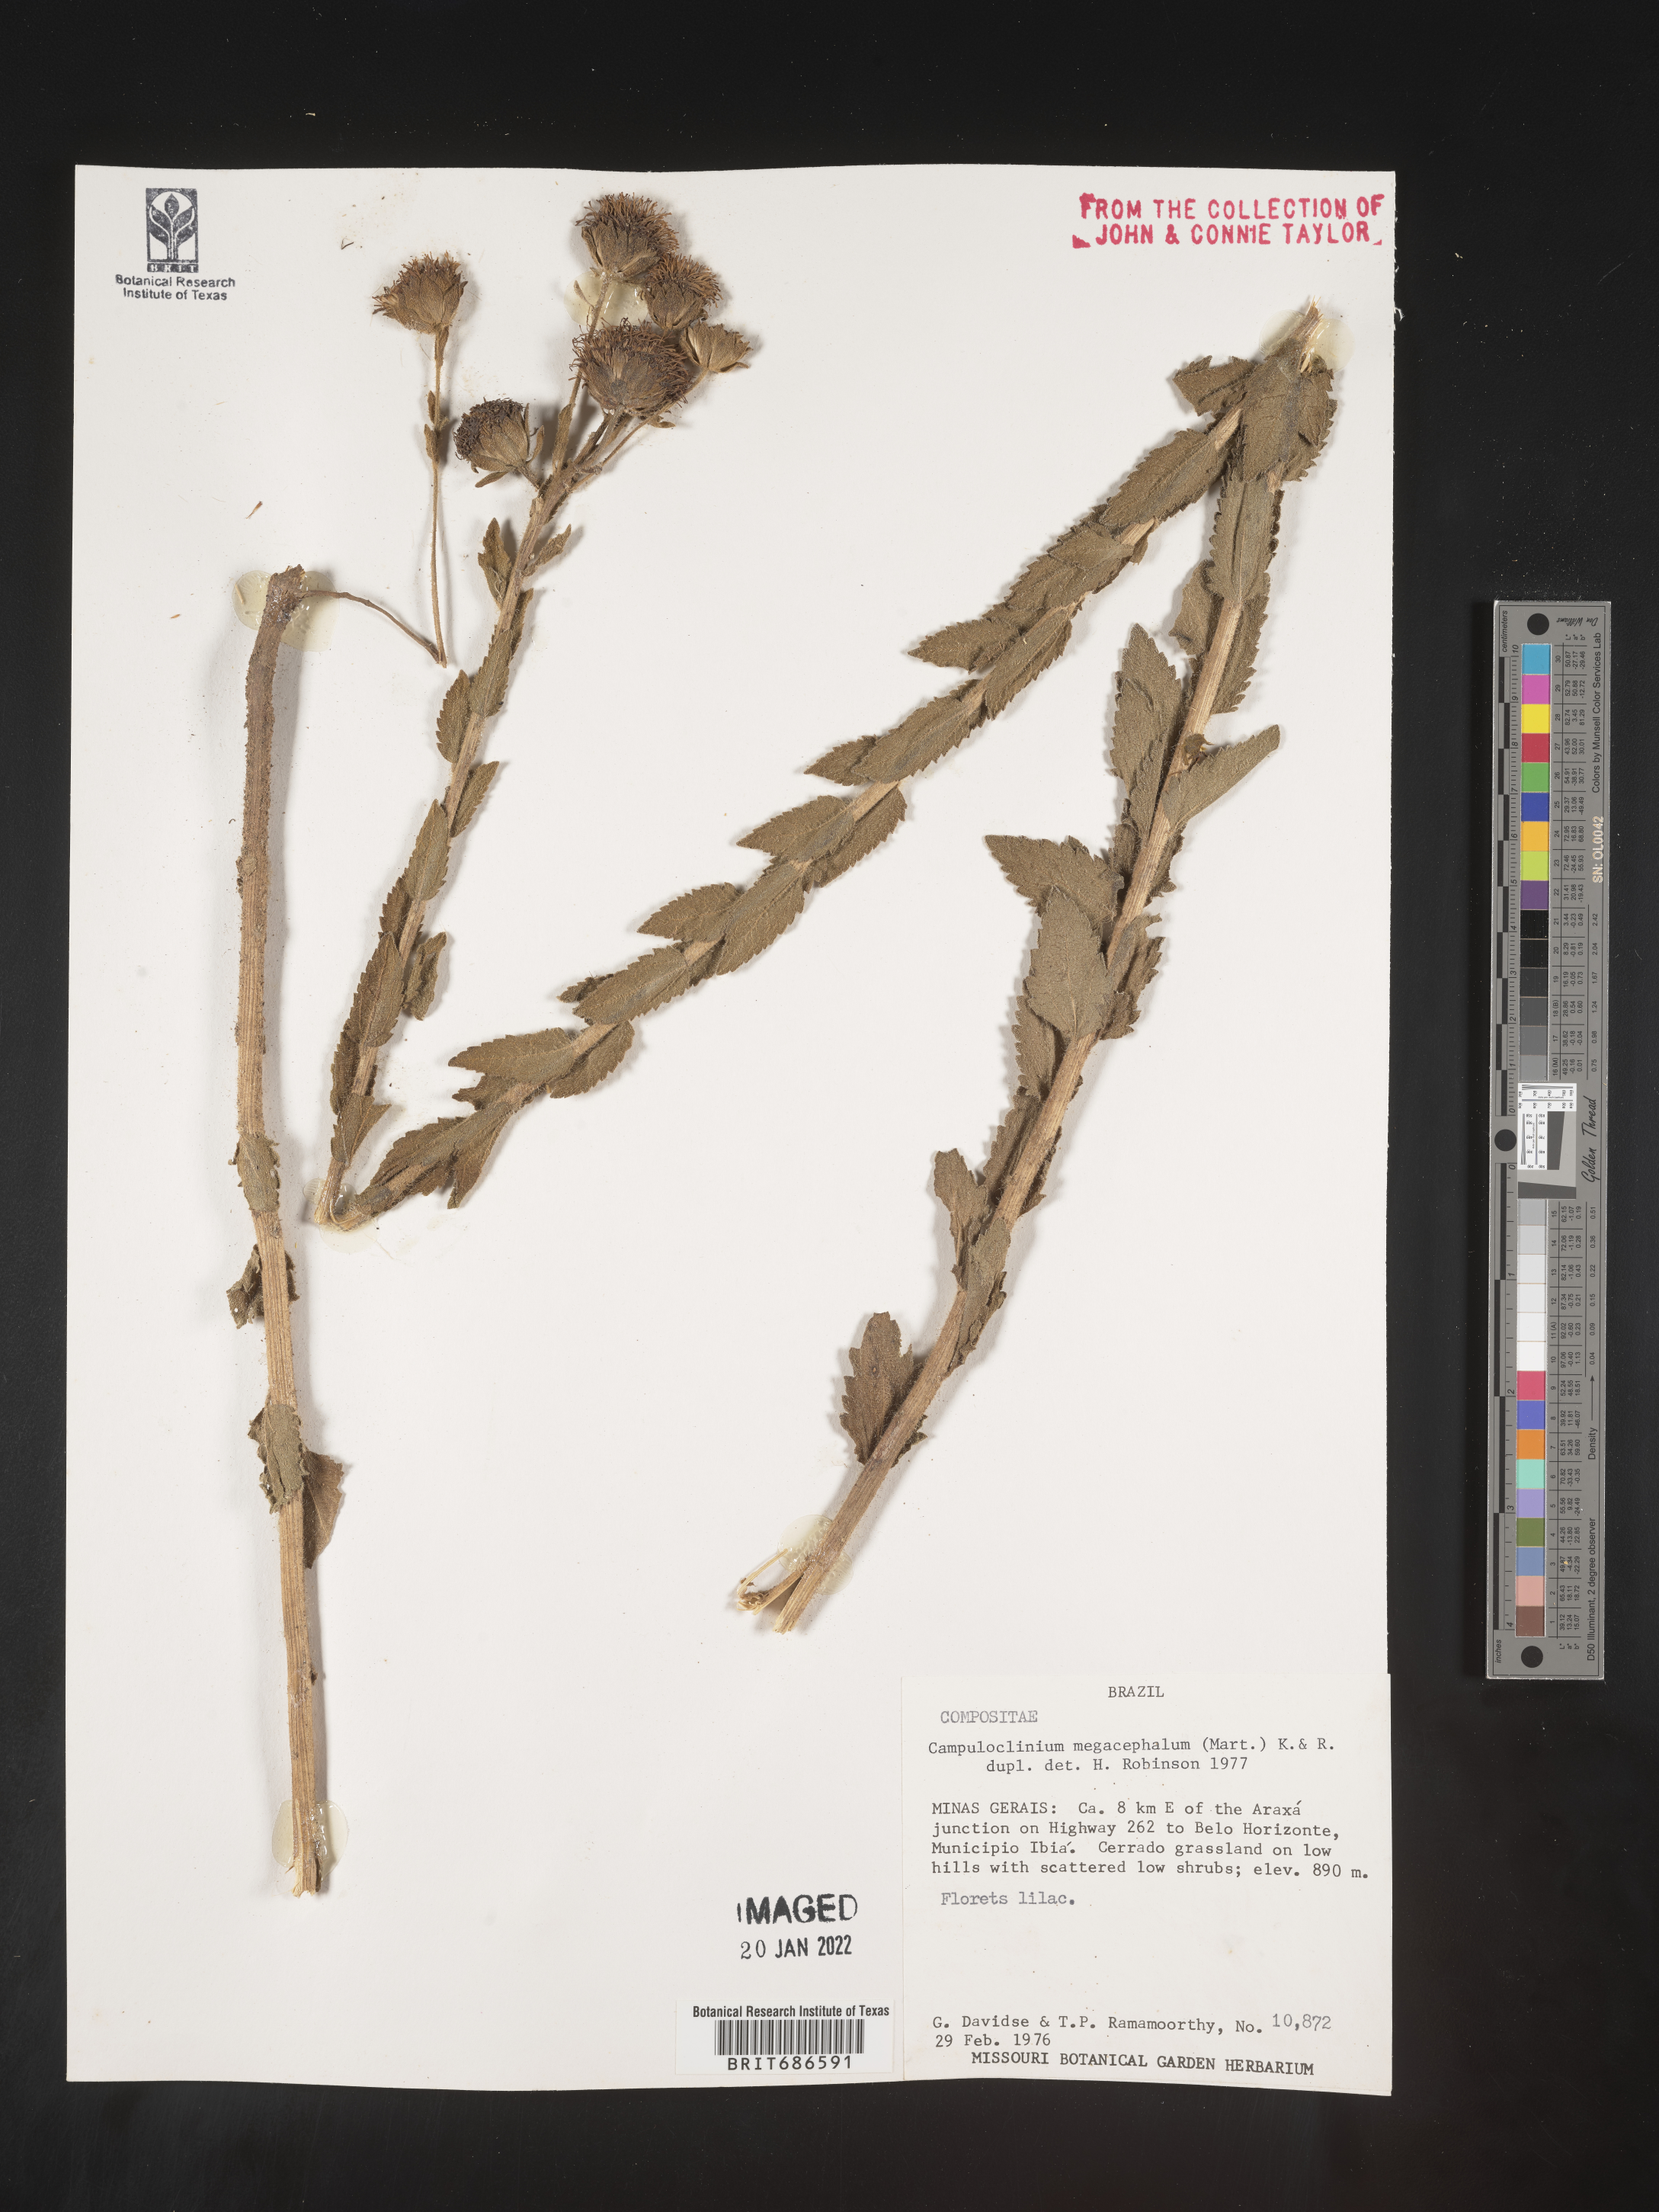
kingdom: Plantae
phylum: Tracheophyta
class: Magnoliopsida
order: Asterales
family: Asteraceae
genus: Campuloclinium
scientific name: Campuloclinium
